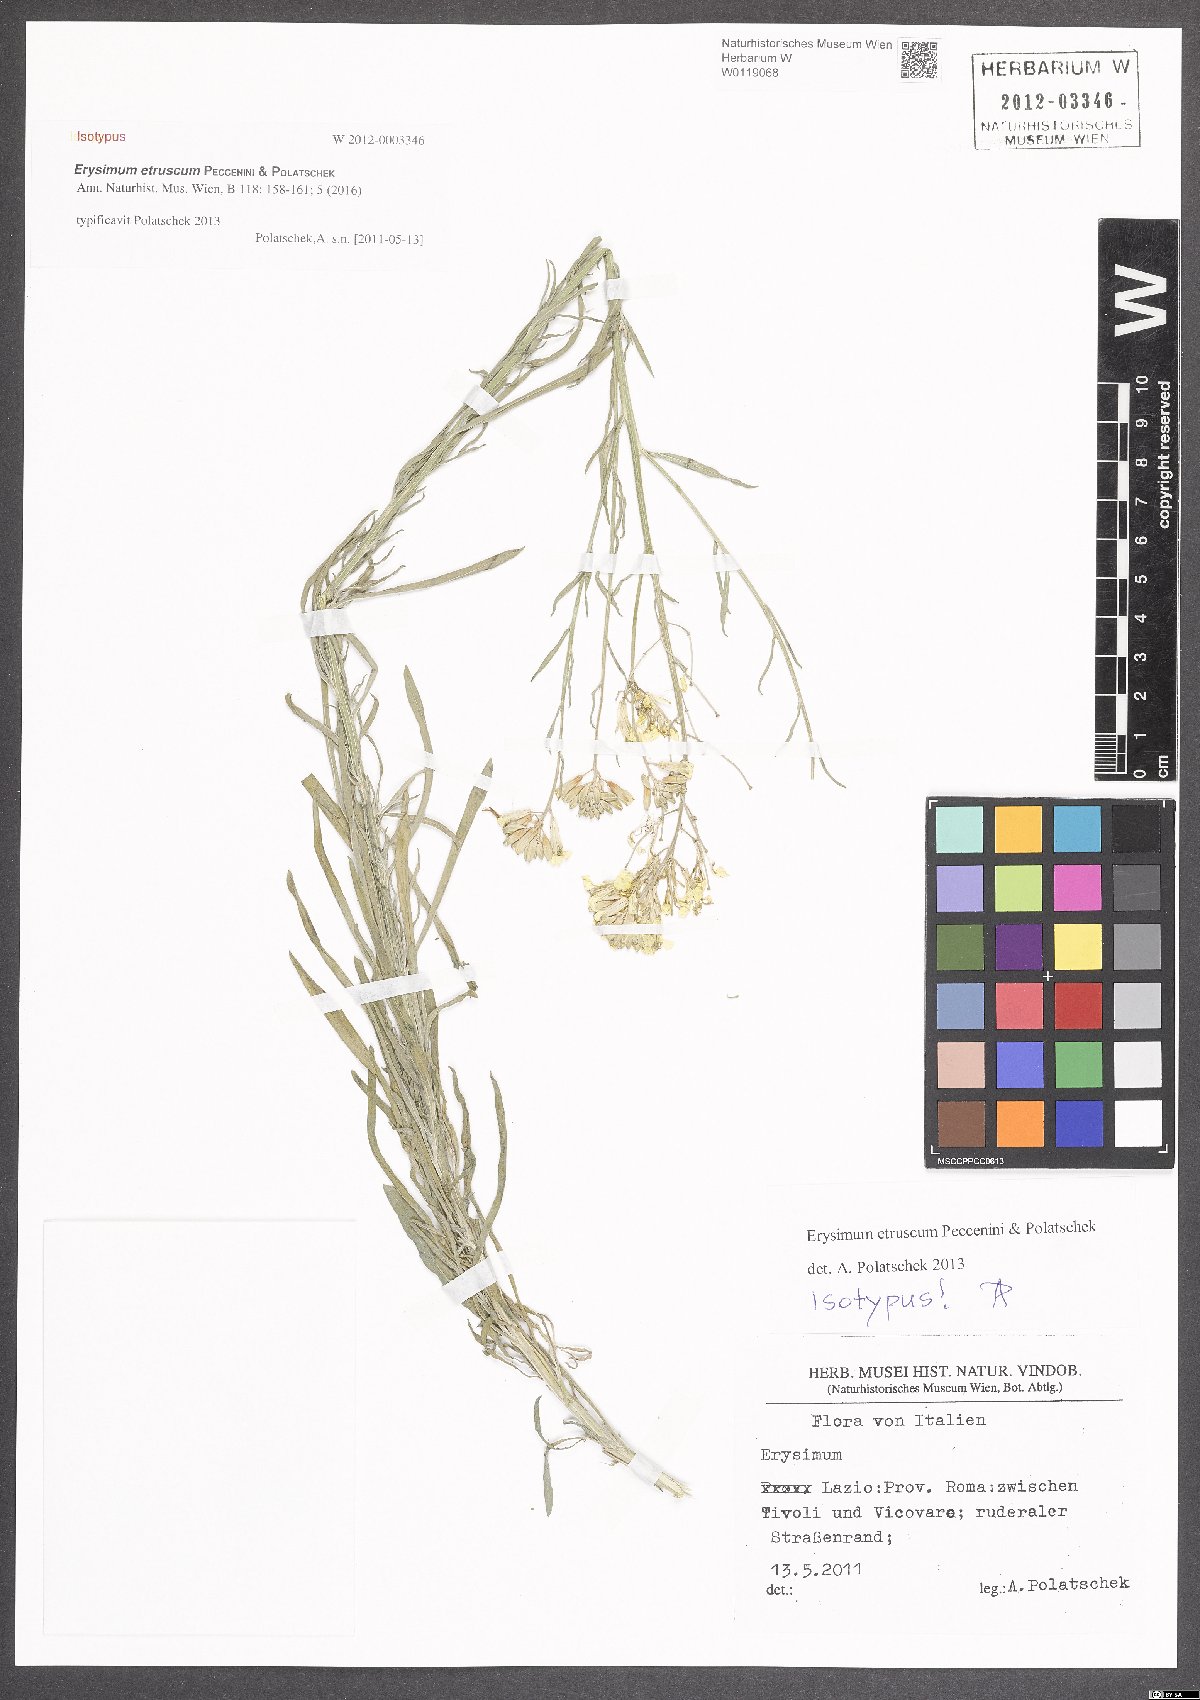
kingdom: Plantae
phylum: Tracheophyta
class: Magnoliopsida
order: Brassicales
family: Brassicaceae
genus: Erysimum
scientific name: Erysimum pseudorhaeticum
